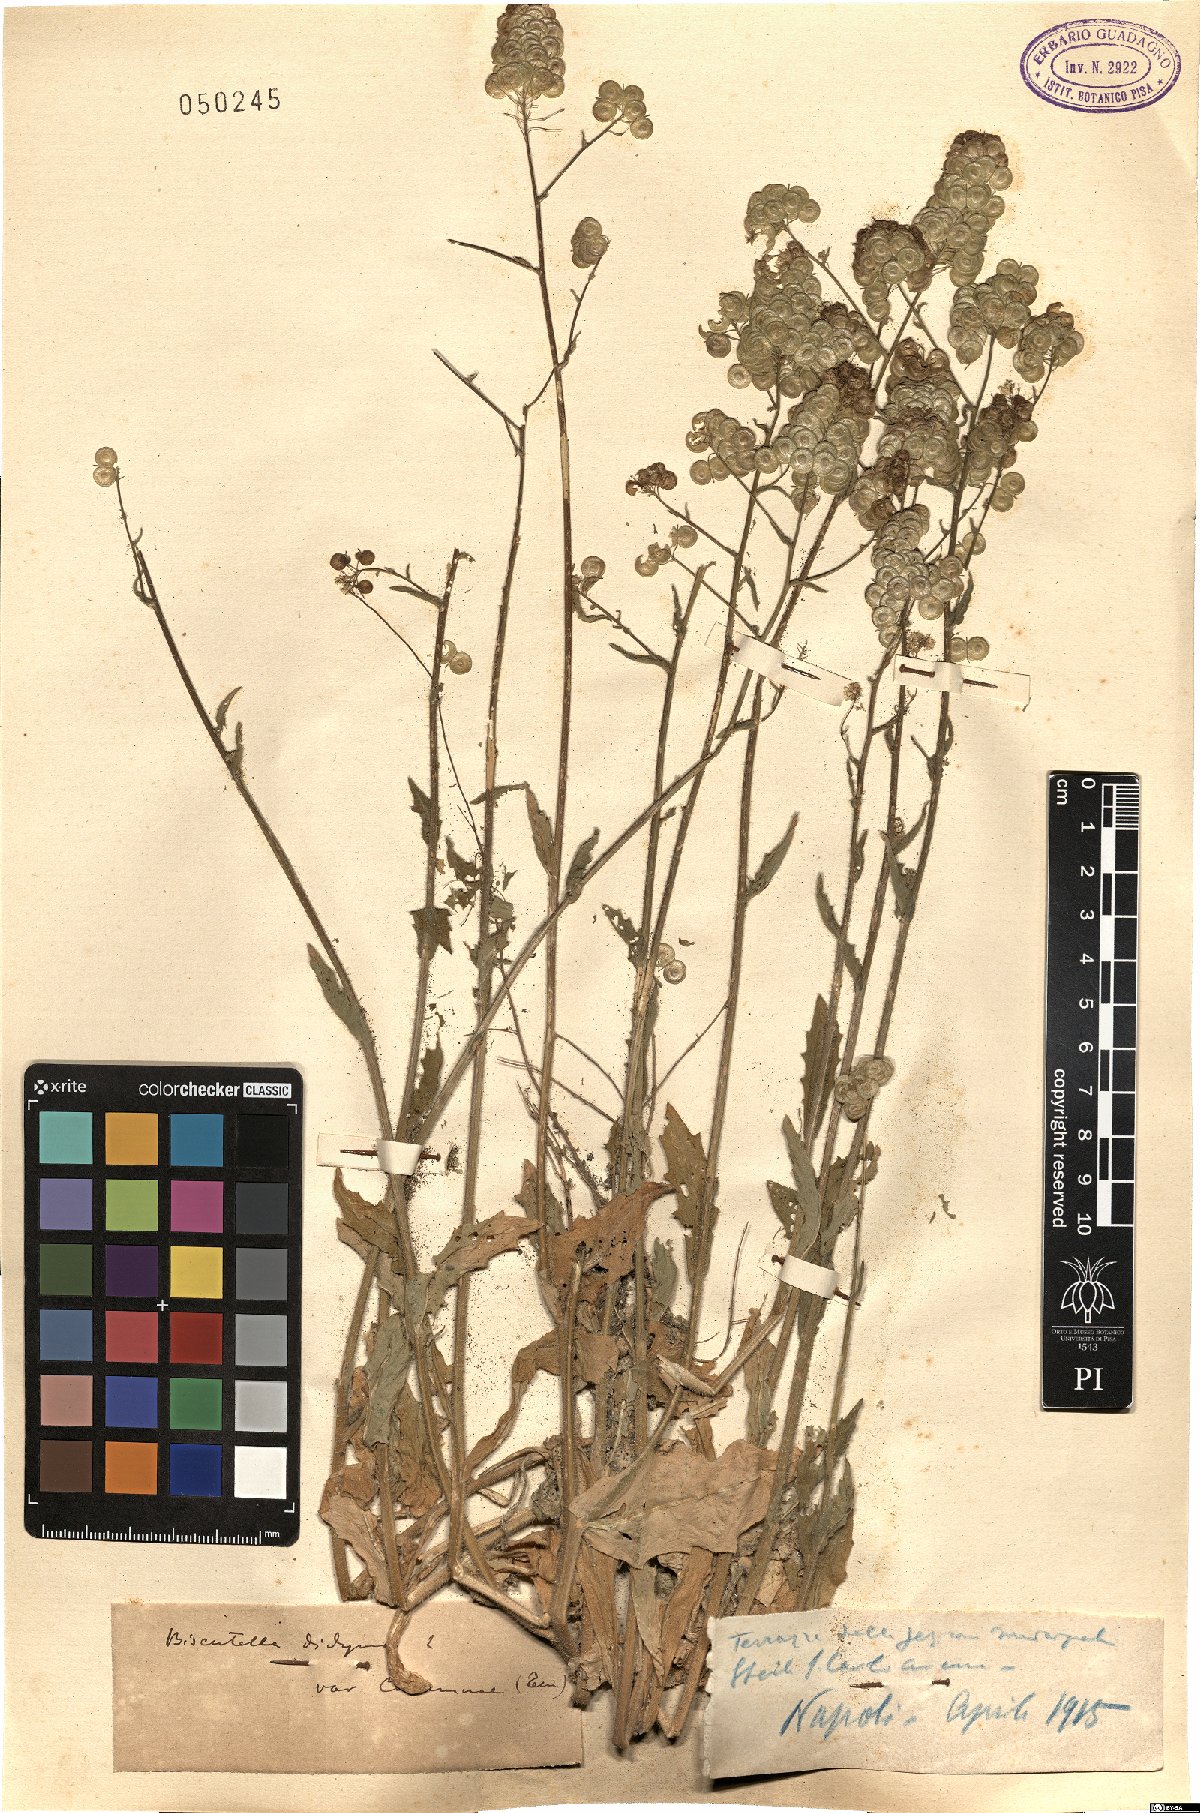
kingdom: Plantae
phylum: Tracheophyta
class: Magnoliopsida
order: Brassicales
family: Brassicaceae
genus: Biscutella
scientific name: Biscutella didyma
